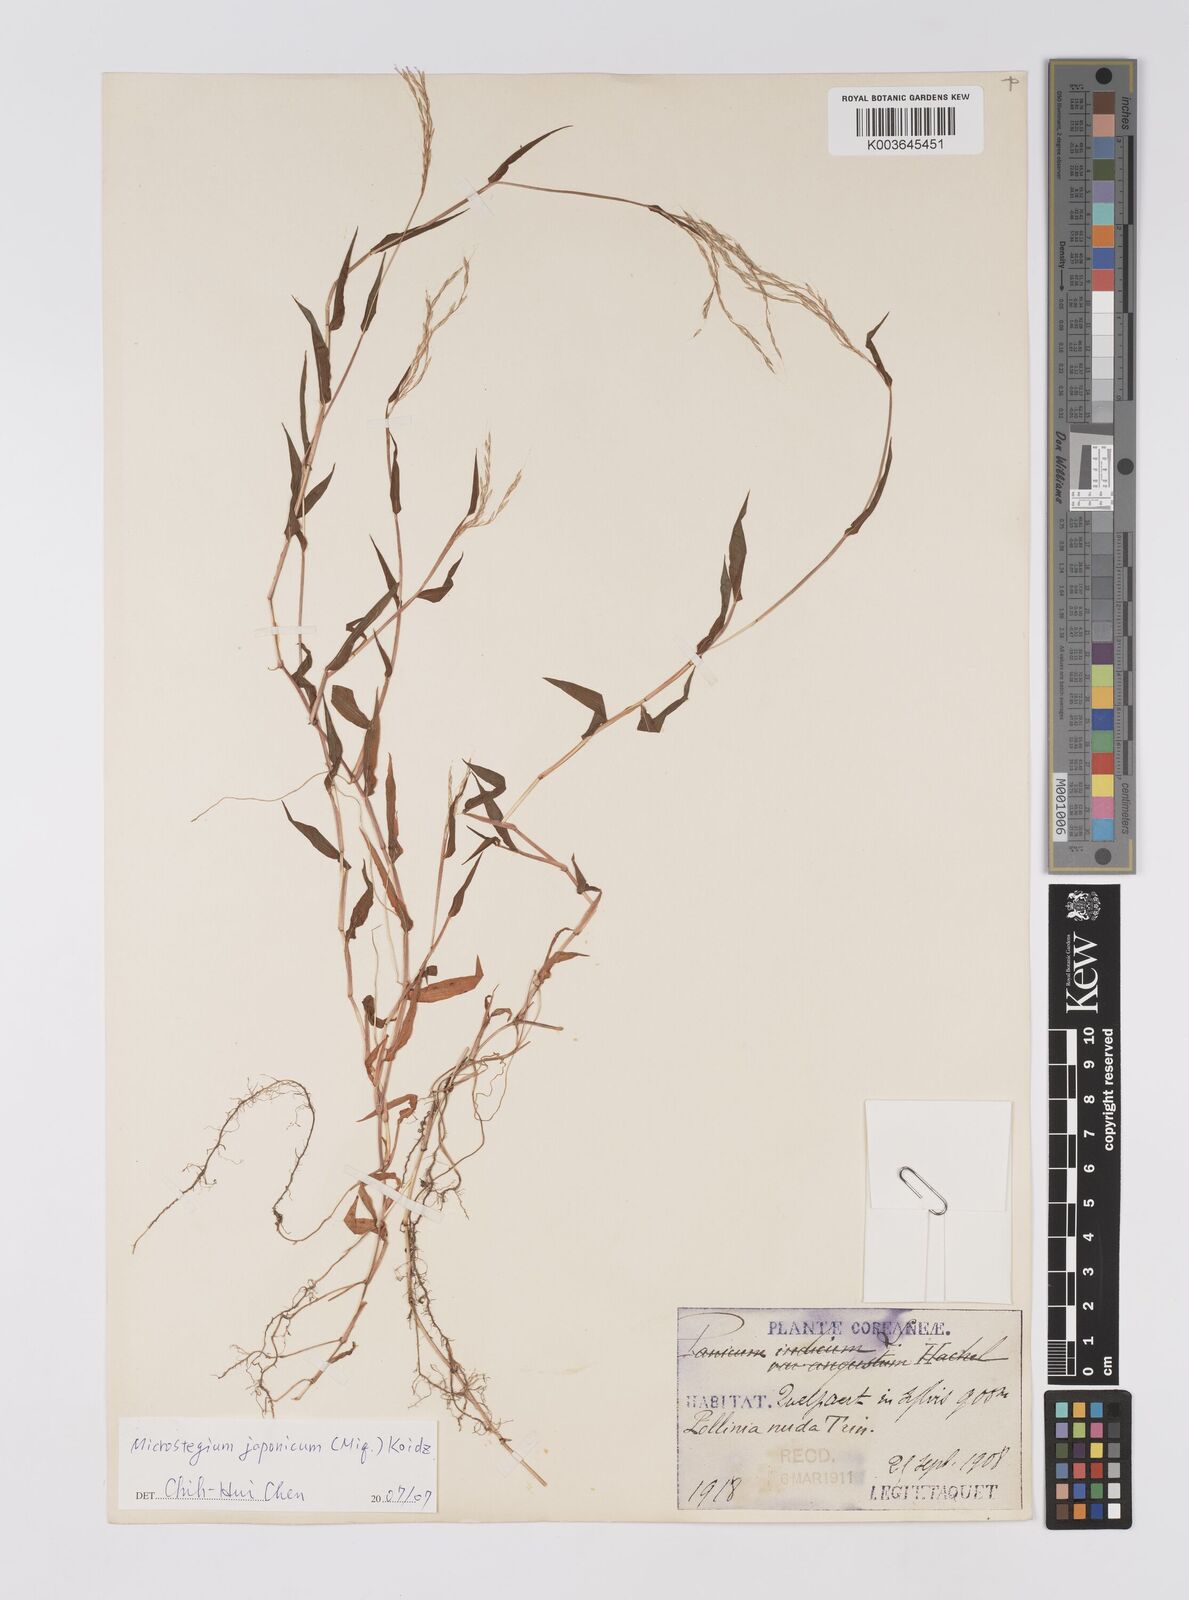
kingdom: Plantae
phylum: Tracheophyta
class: Liliopsida
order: Poales
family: Poaceae
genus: Microstegium
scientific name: Microstegium japonicum
